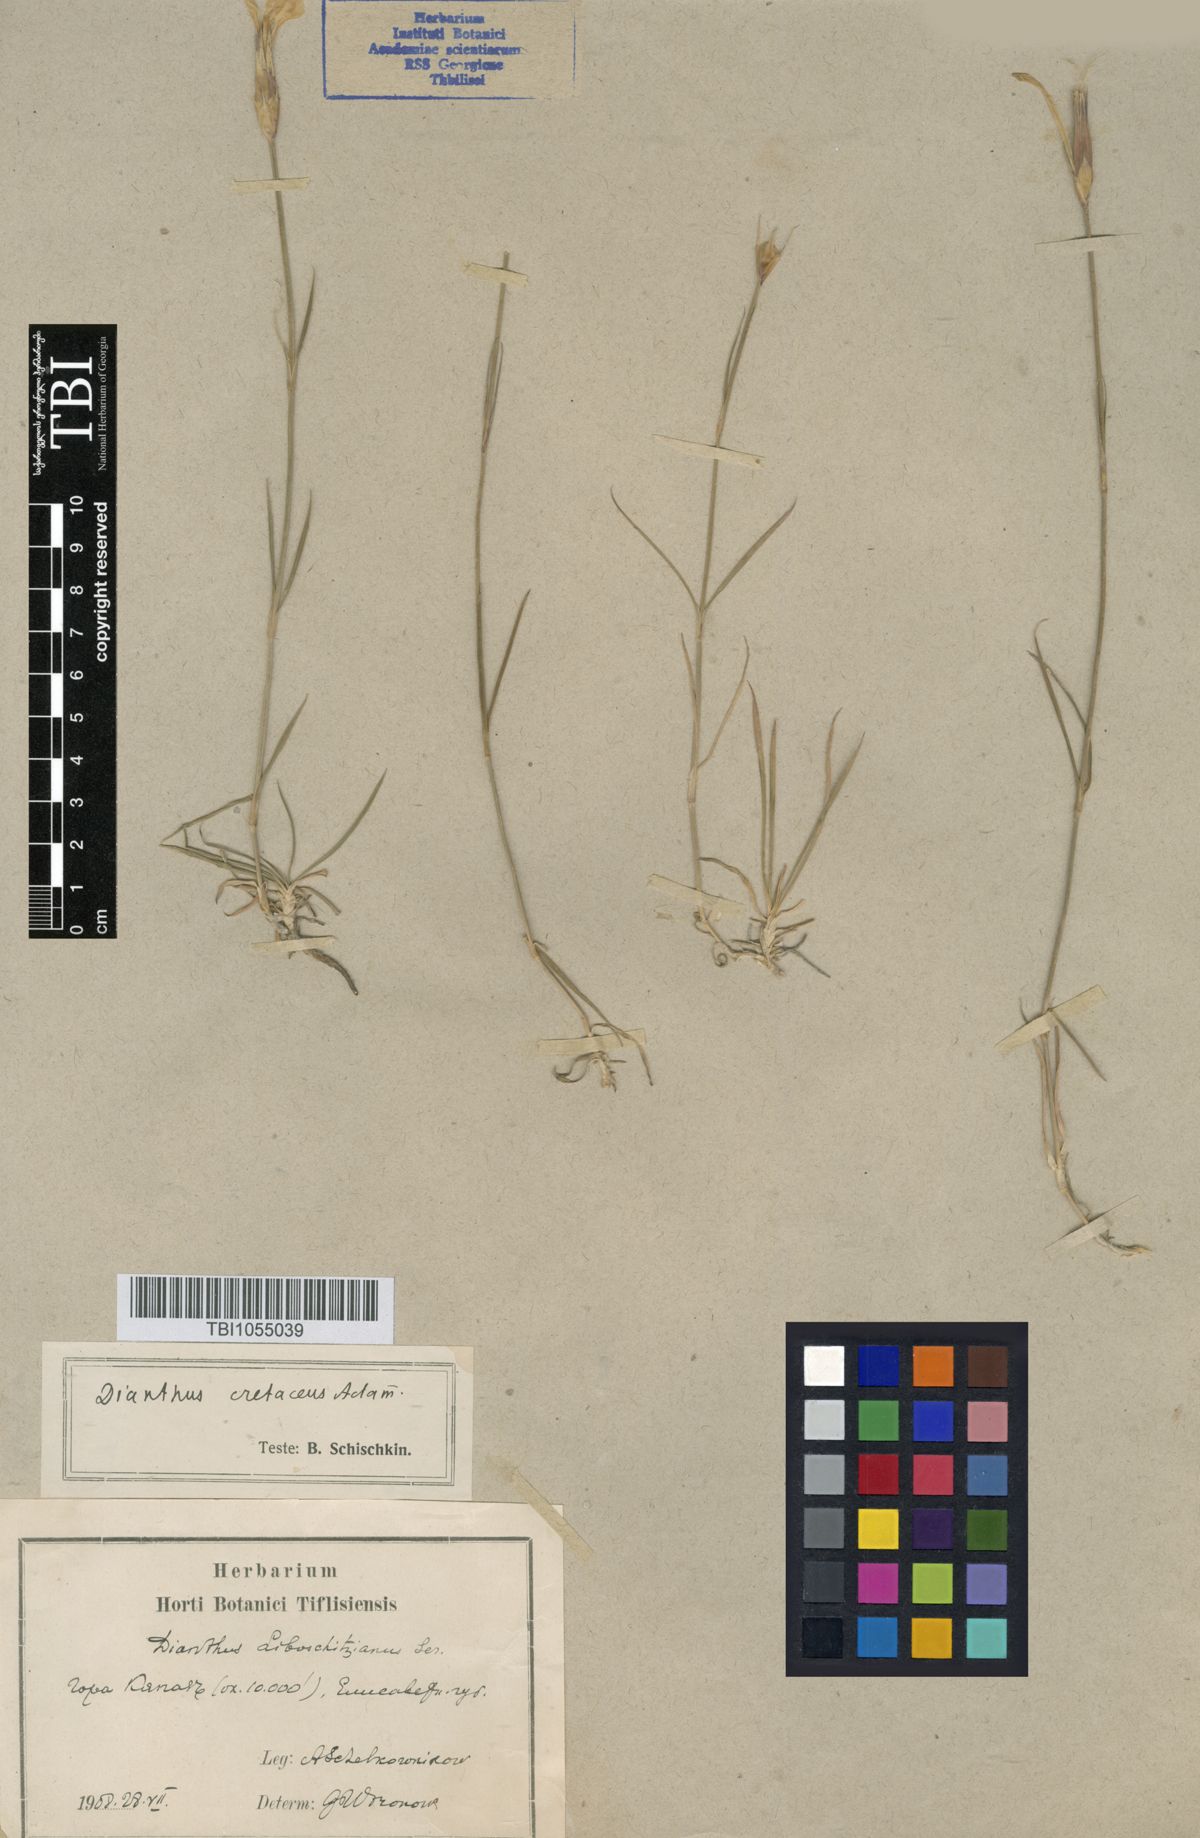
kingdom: Plantae
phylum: Tracheophyta
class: Magnoliopsida
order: Caryophyllales
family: Caryophyllaceae
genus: Dianthus
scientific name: Dianthus cretaceus
